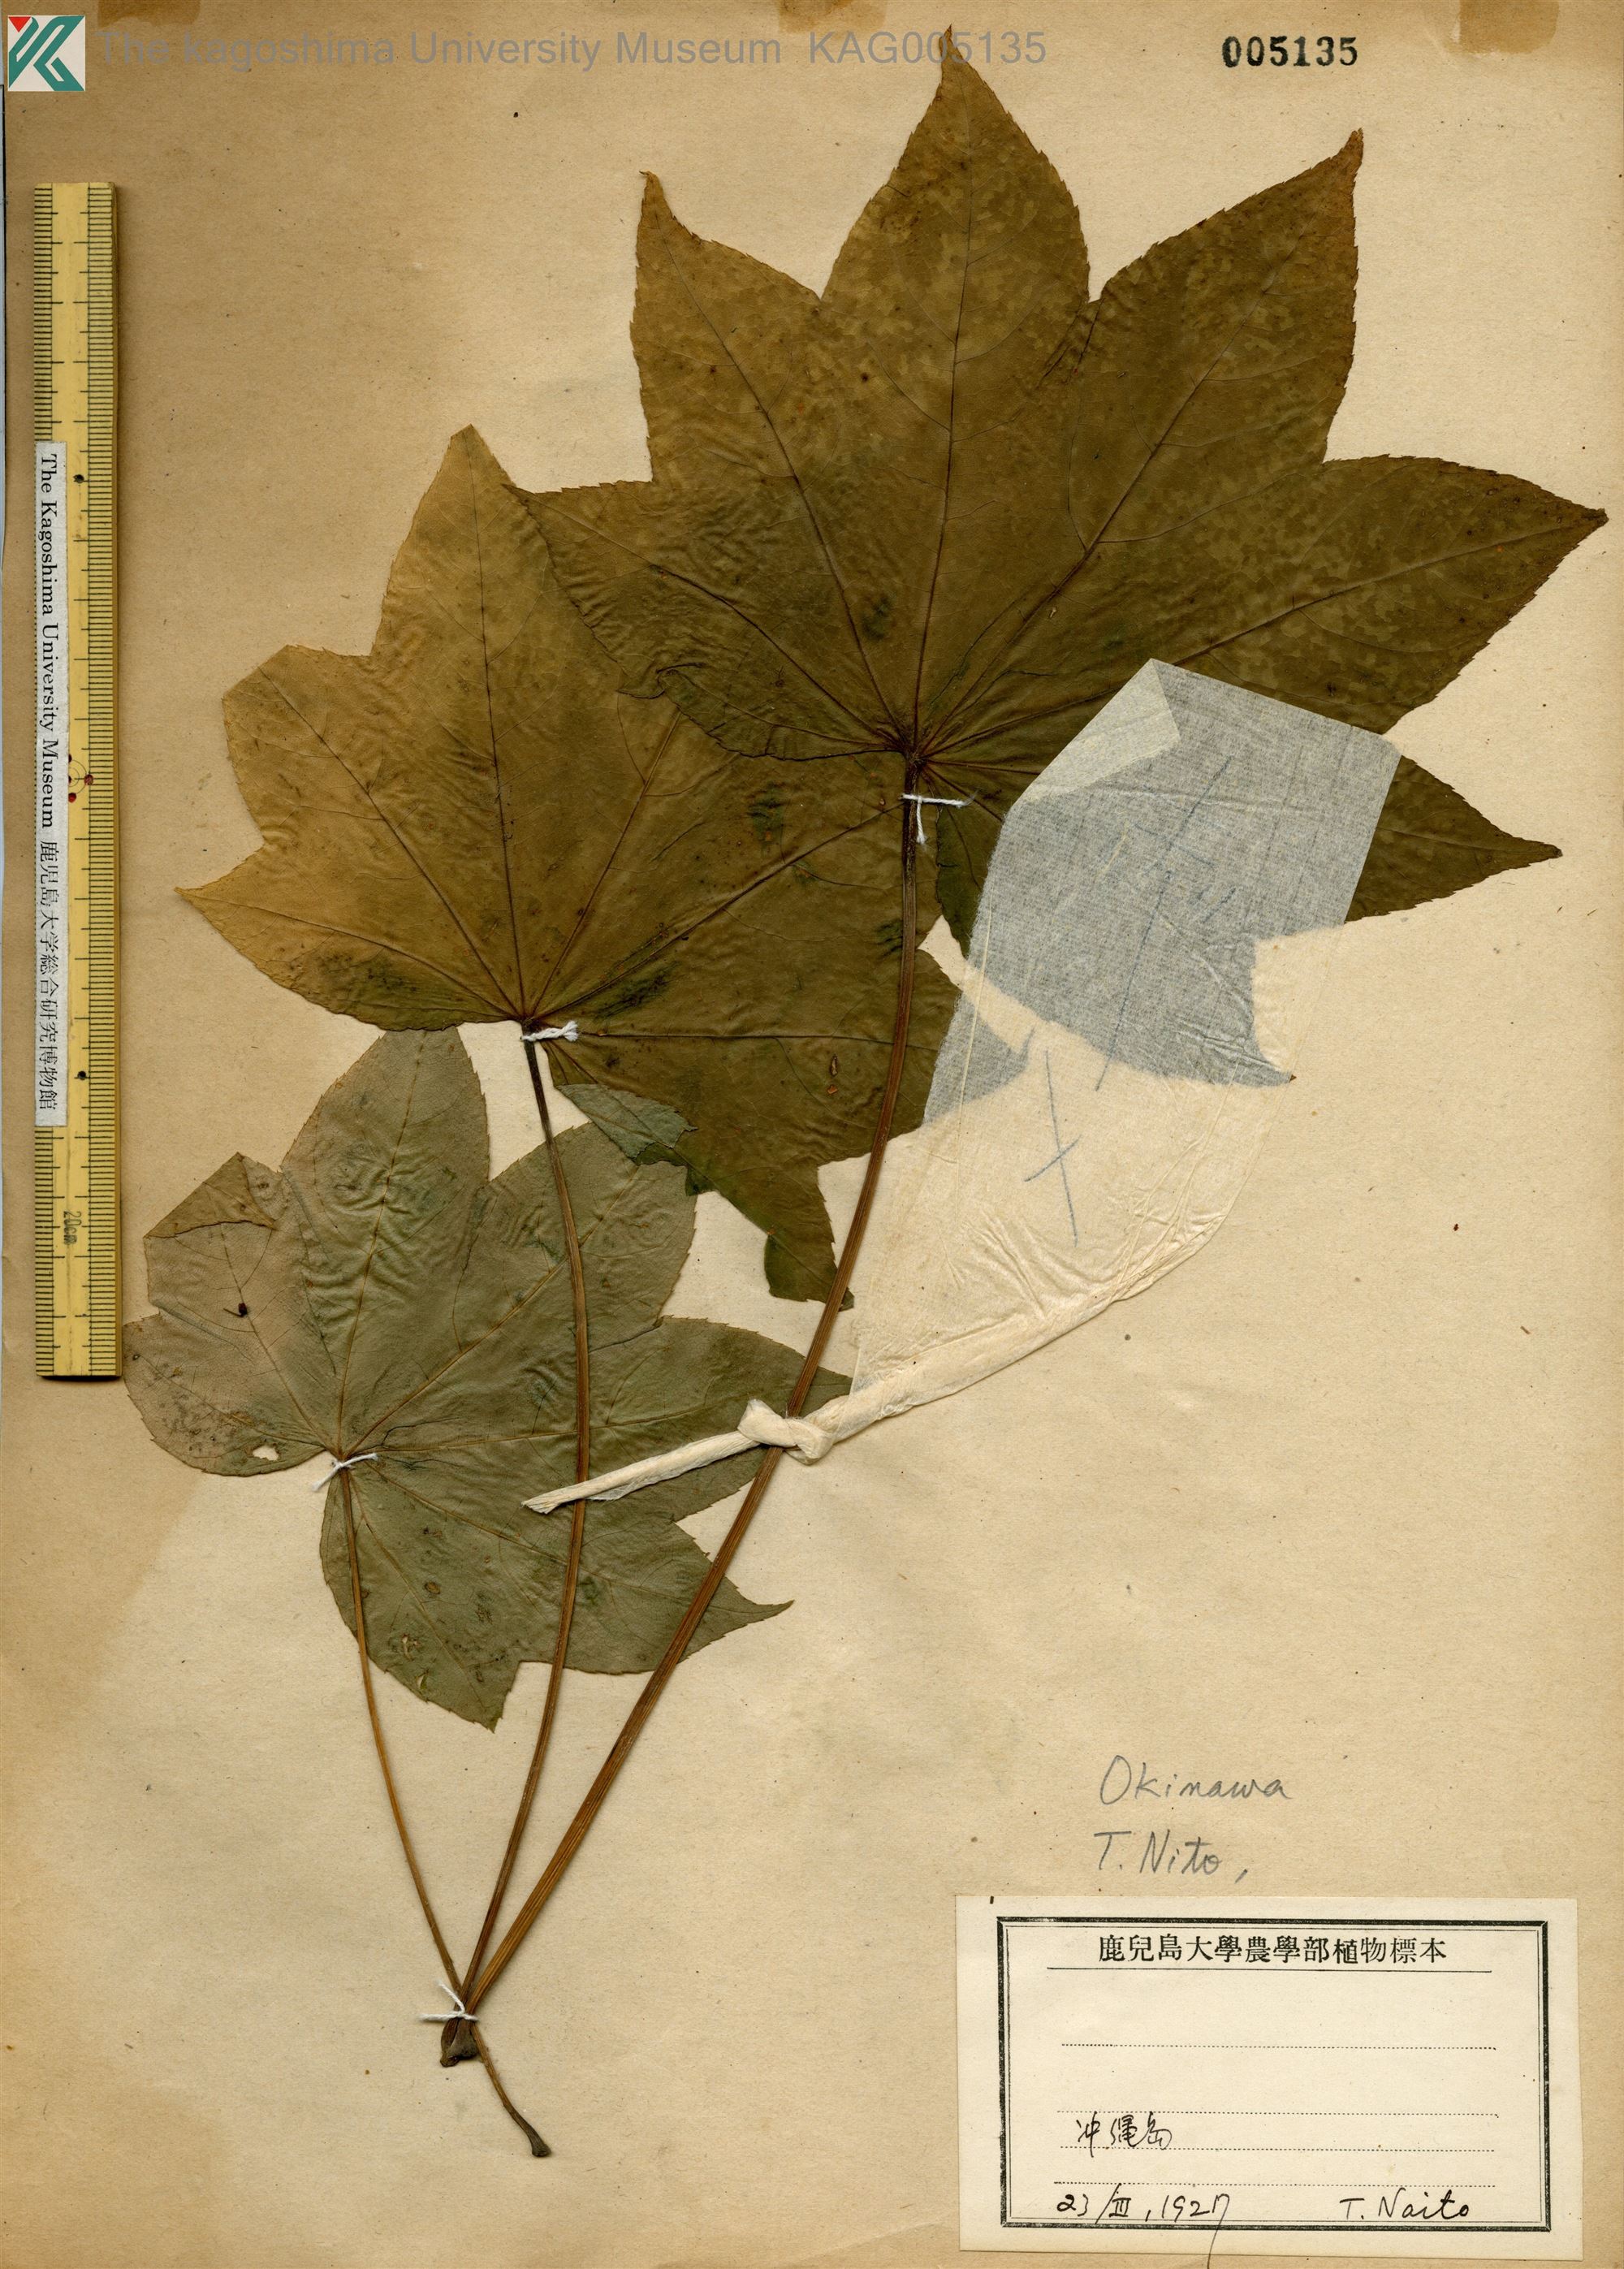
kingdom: Plantae
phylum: Tracheophyta
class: Magnoliopsida
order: Apiales
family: Araliaceae
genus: Kalopanax
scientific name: Kalopanax septemlobus
